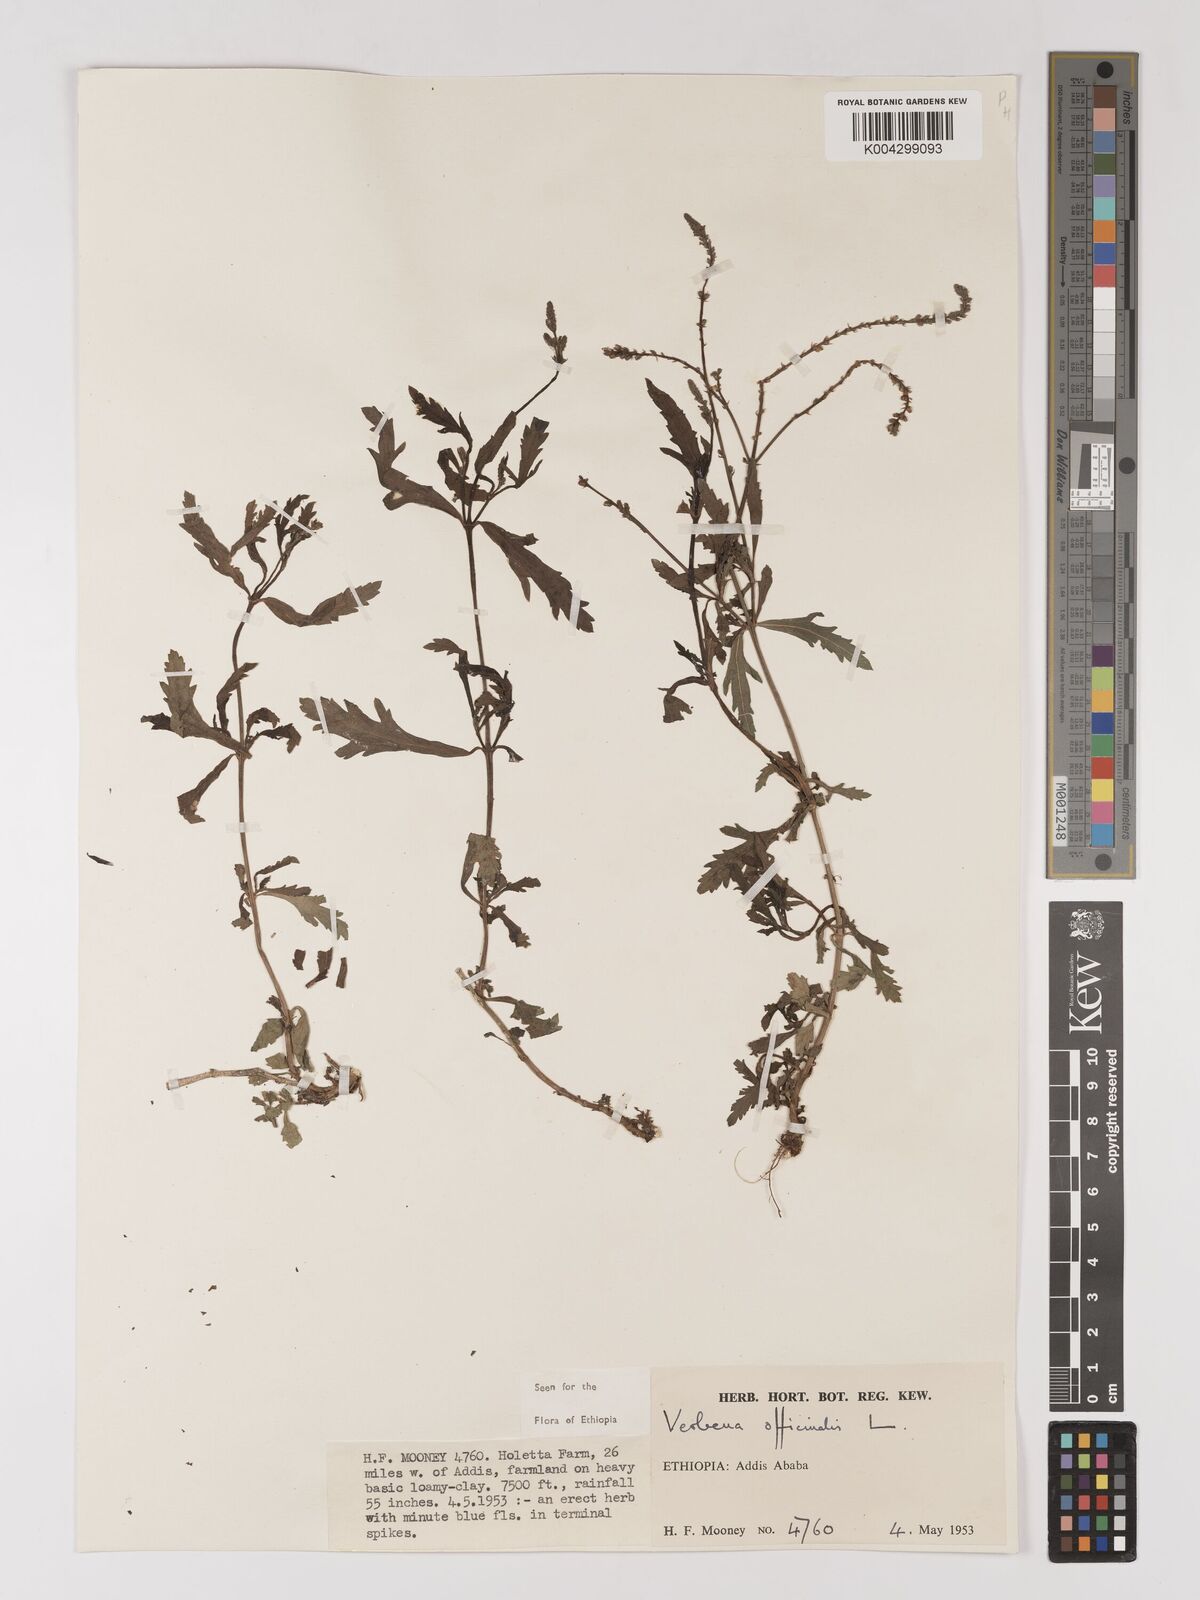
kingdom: Plantae
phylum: Tracheophyta
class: Magnoliopsida
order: Lamiales
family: Verbenaceae
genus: Verbena
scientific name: Verbena officinalis
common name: Vervain
